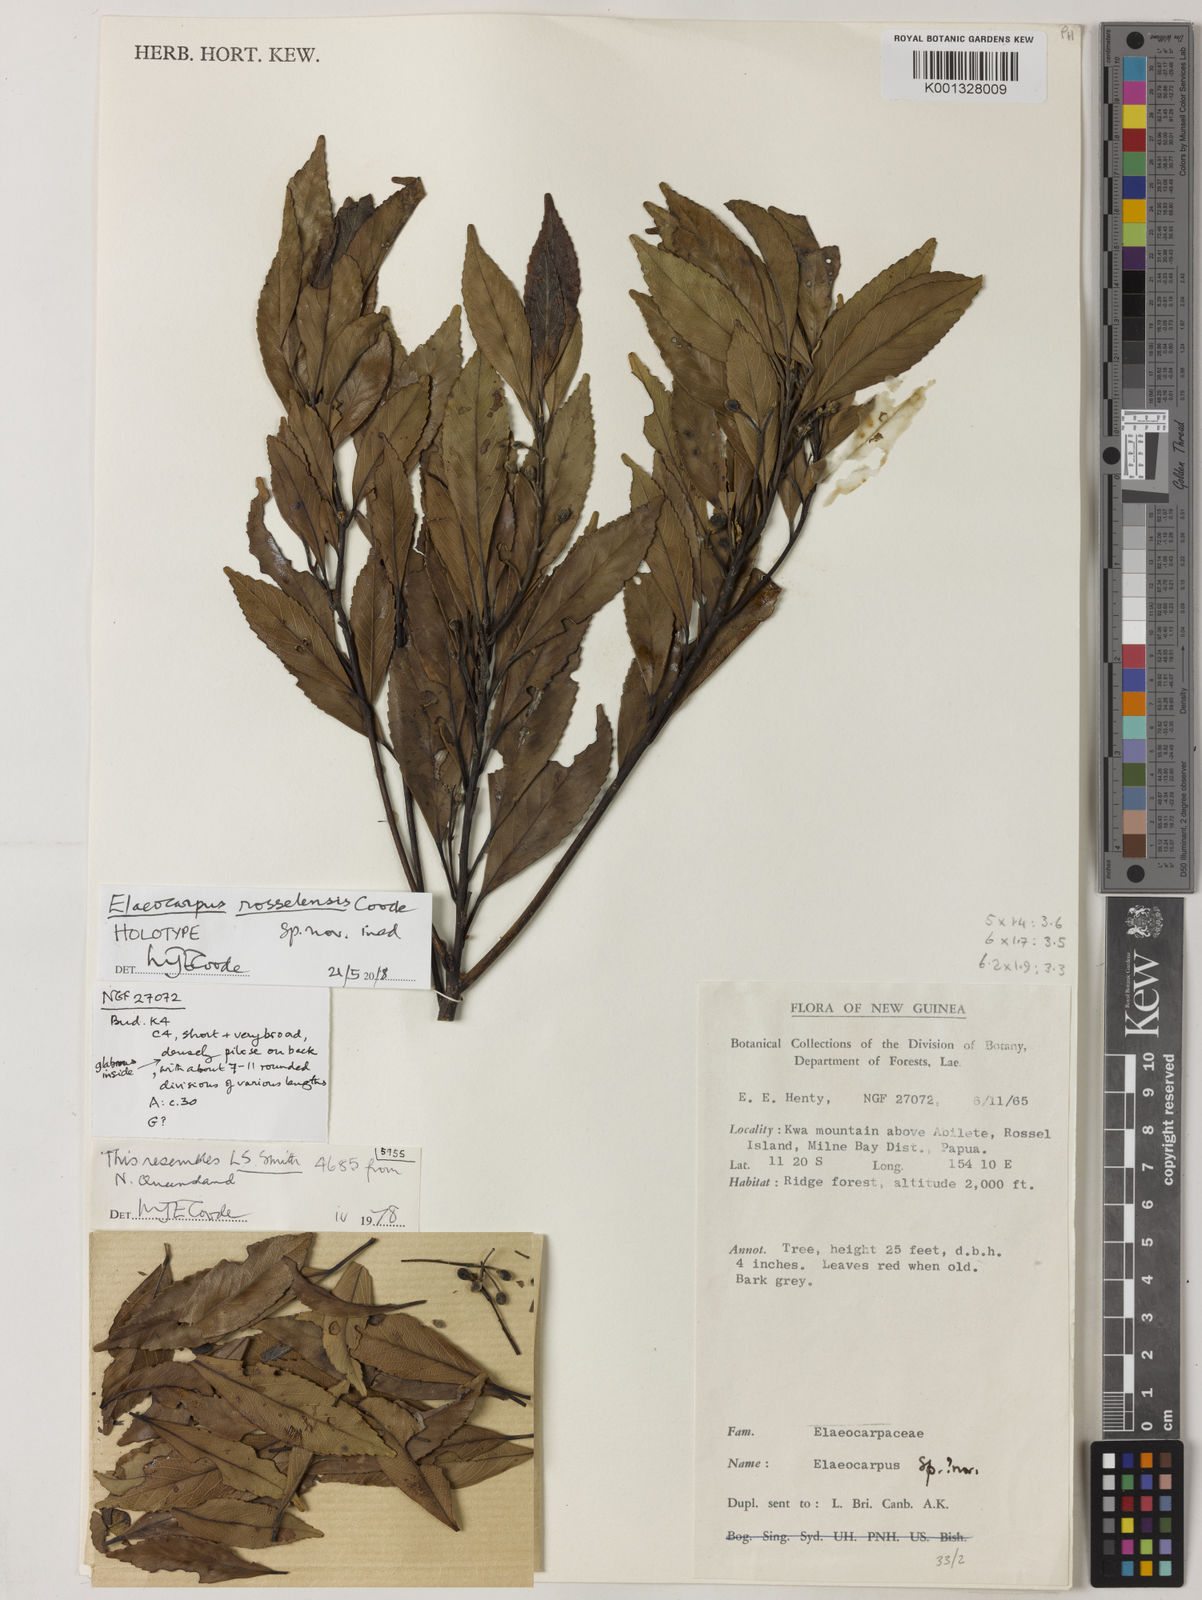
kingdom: Plantae
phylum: Tracheophyta
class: Magnoliopsida
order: Oxalidales
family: Elaeocarpaceae
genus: Elaeocarpus
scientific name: Elaeocarpus rosselensis
